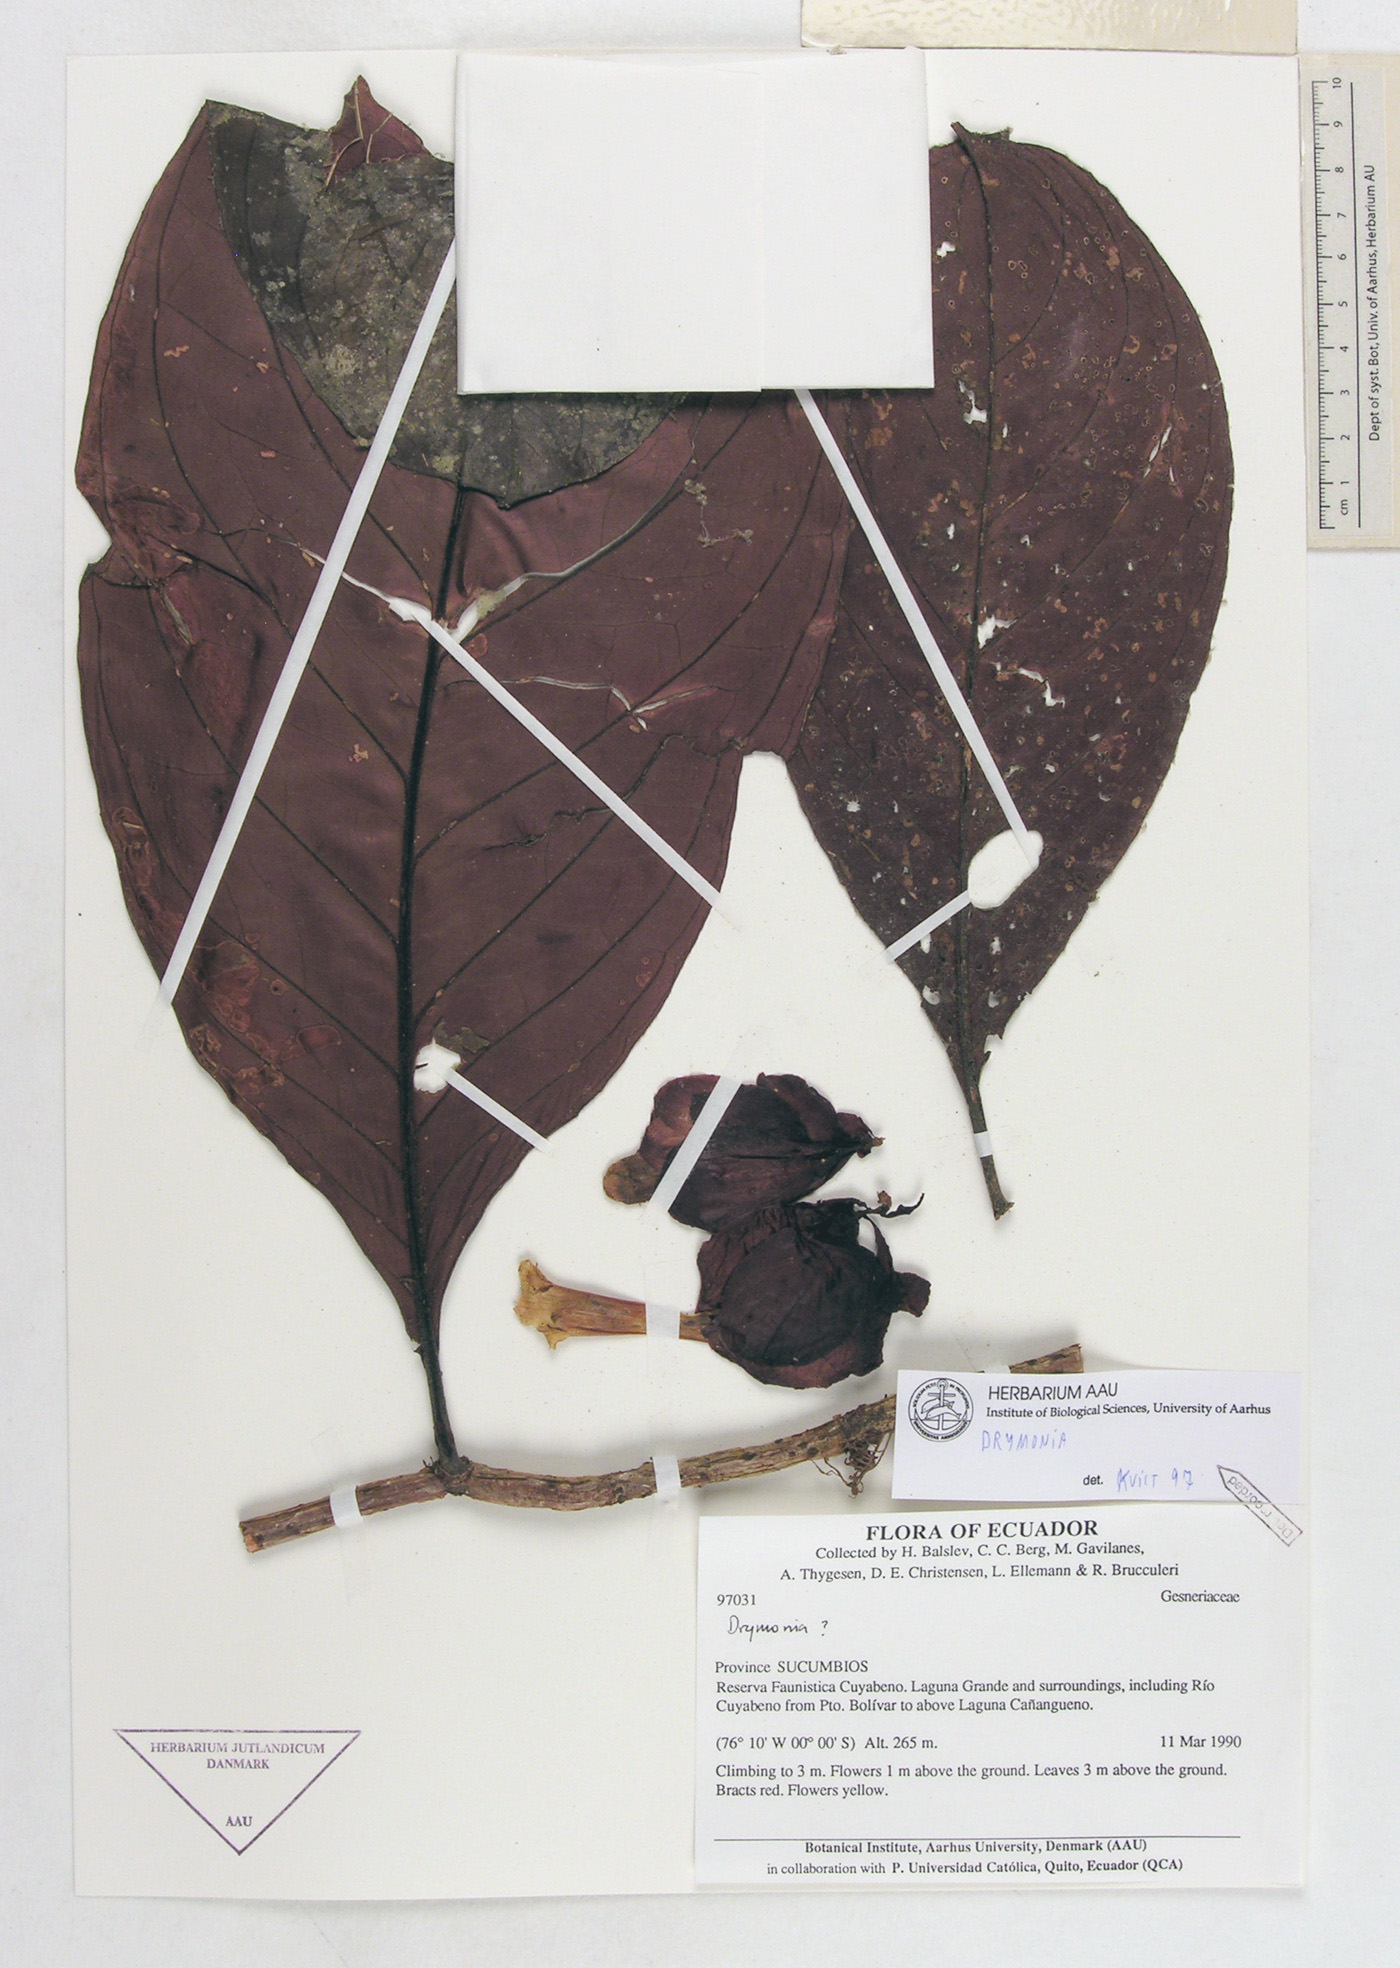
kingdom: Plantae
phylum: Tracheophyta
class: Magnoliopsida
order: Lamiales
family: Gesneriaceae
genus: Drymonia
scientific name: Drymonia
